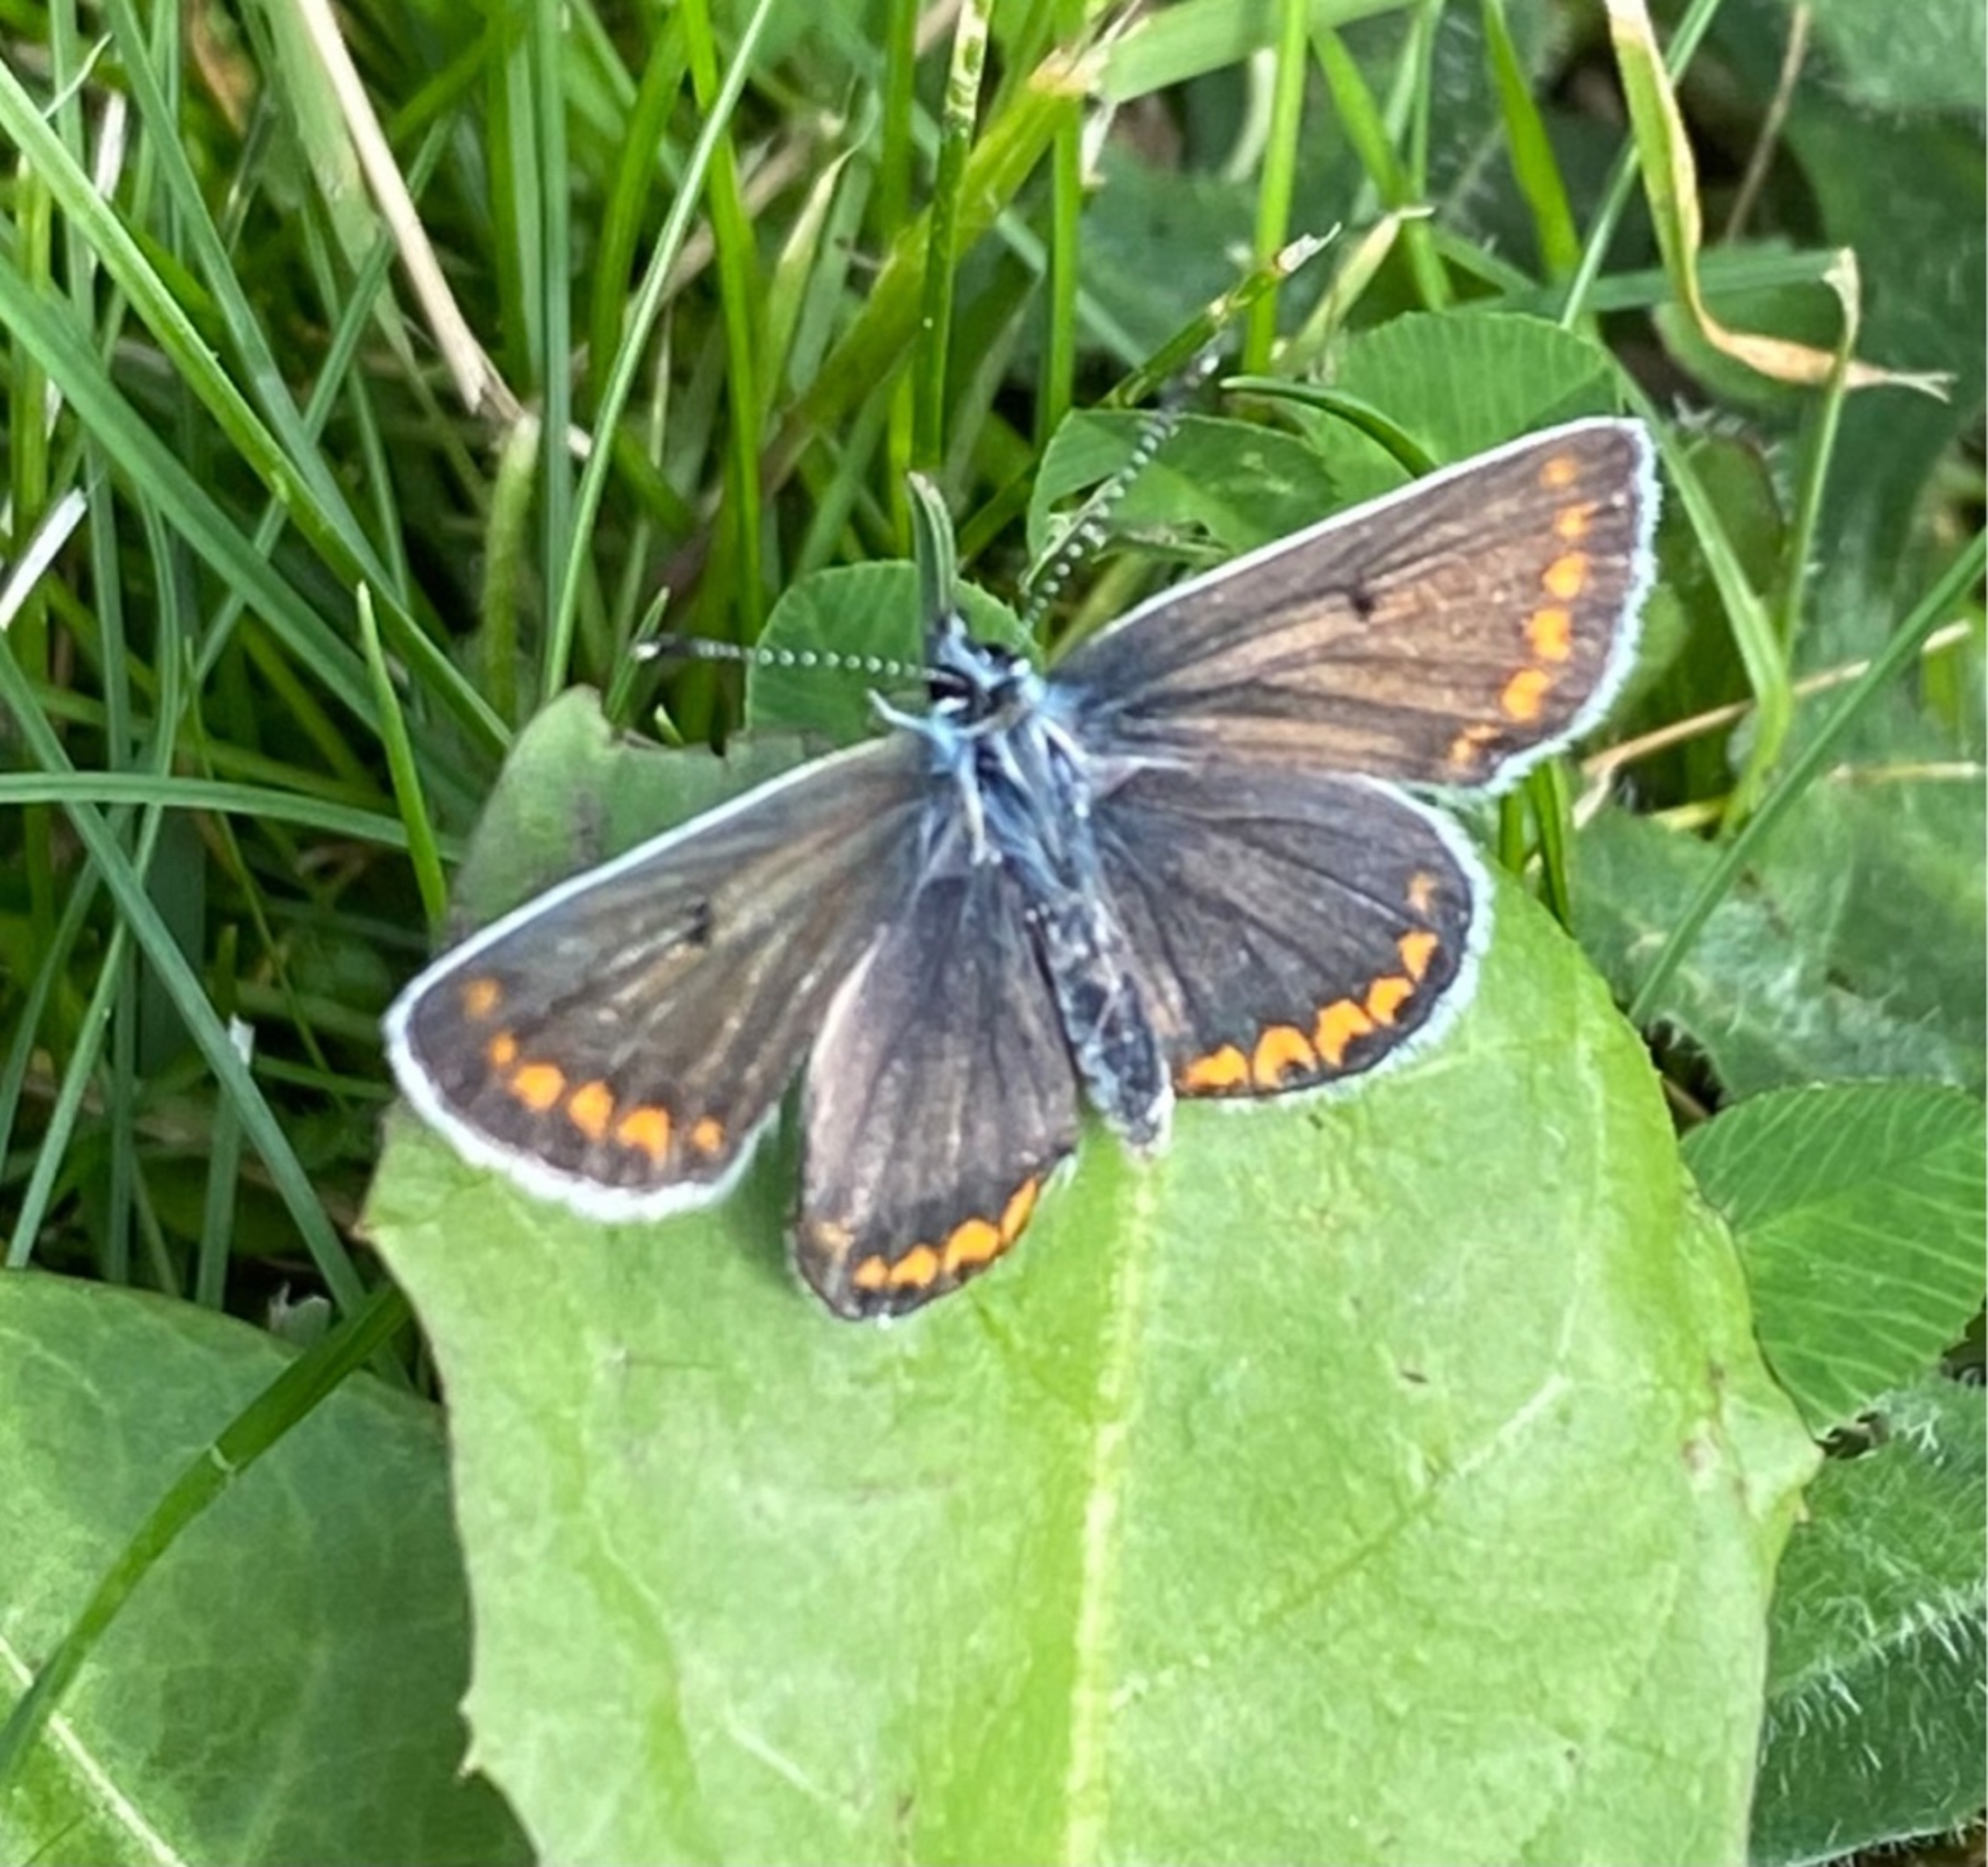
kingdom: Animalia
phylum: Arthropoda
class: Insecta
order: Lepidoptera
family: Lycaenidae
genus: Aricia
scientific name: Aricia agestis
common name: Rødplettet blåfugl
